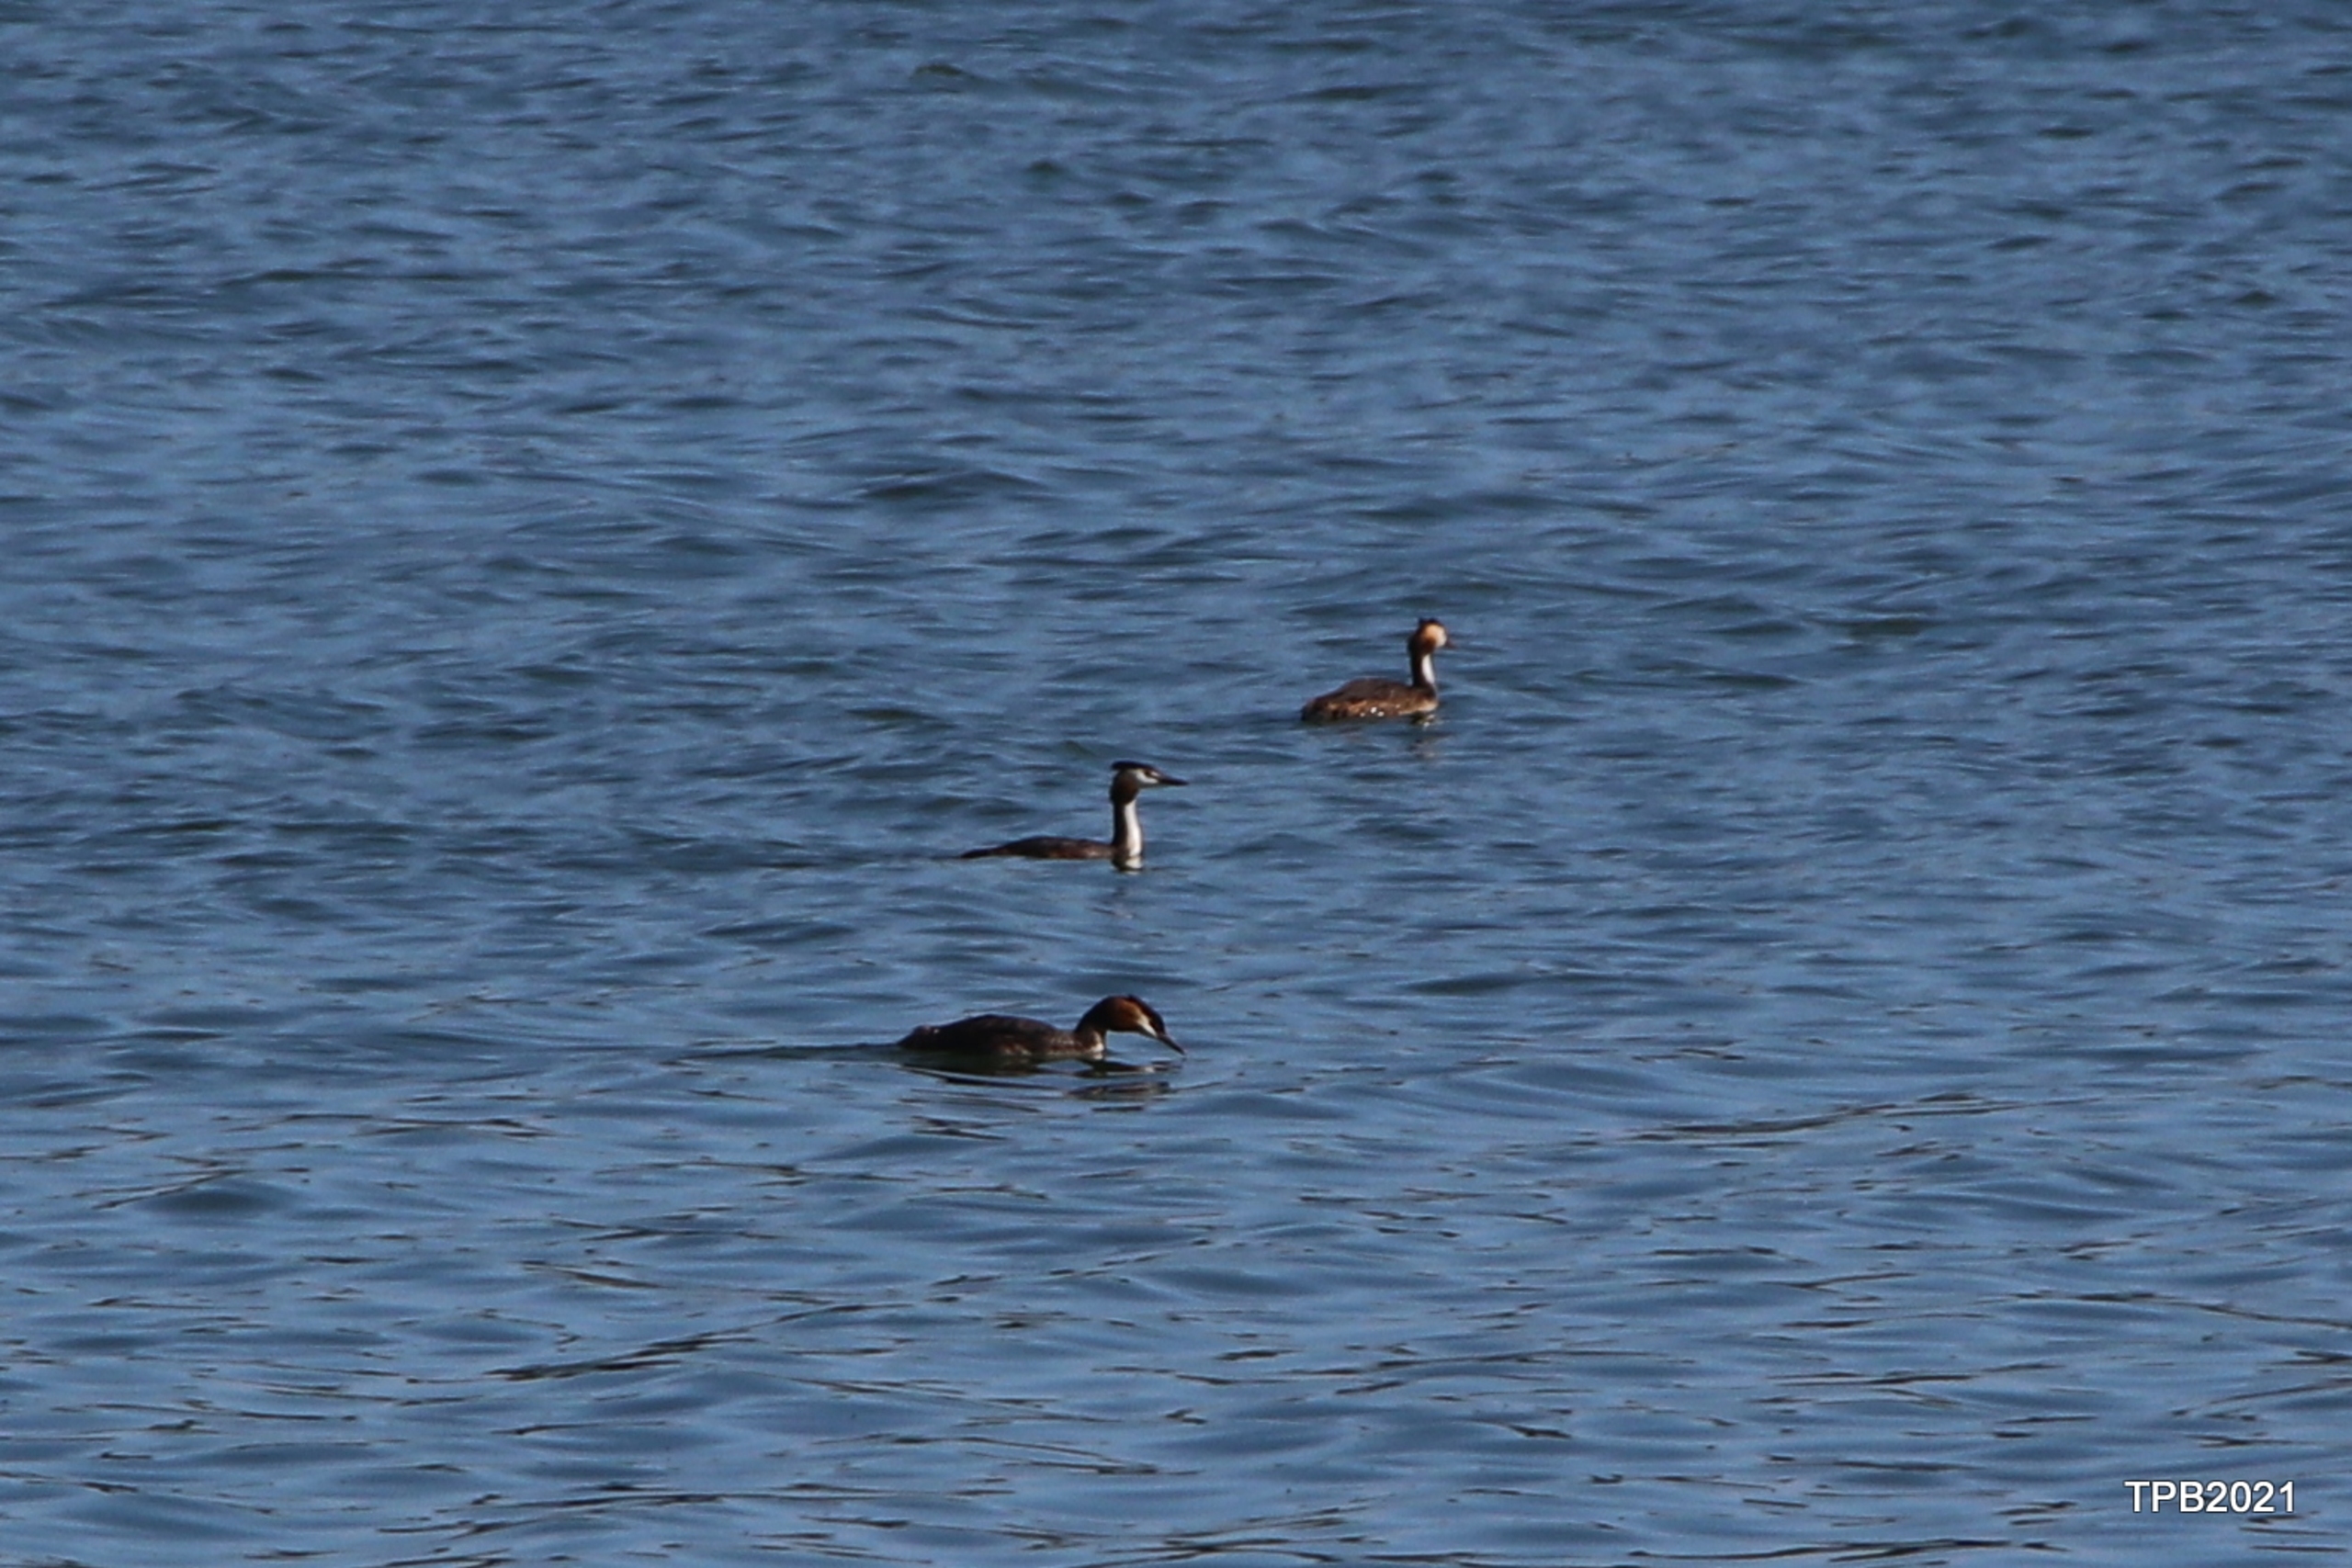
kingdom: Animalia
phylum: Chordata
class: Aves
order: Podicipediformes
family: Podicipedidae
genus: Podiceps
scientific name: Podiceps cristatus
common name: Toppet lappedykker
